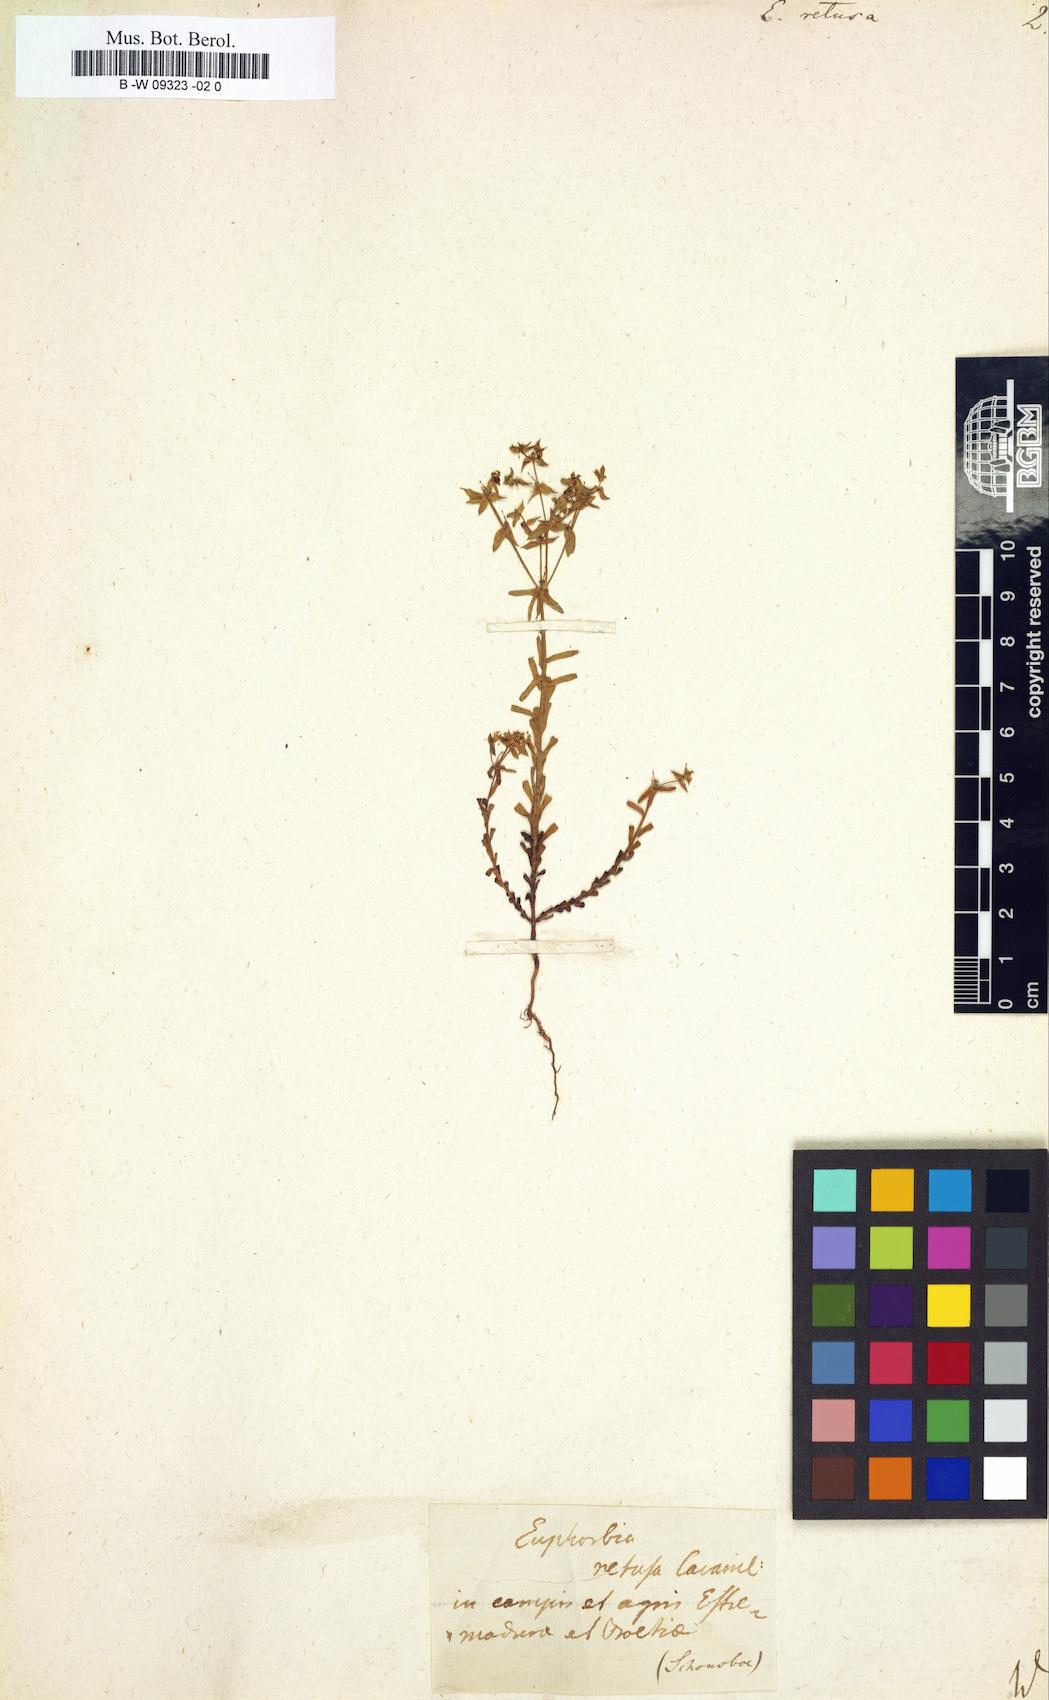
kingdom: Plantae
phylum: Tracheophyta
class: Magnoliopsida
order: Malpighiales
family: Euphorbiaceae
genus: Euphorbia
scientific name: Euphorbia retusa
